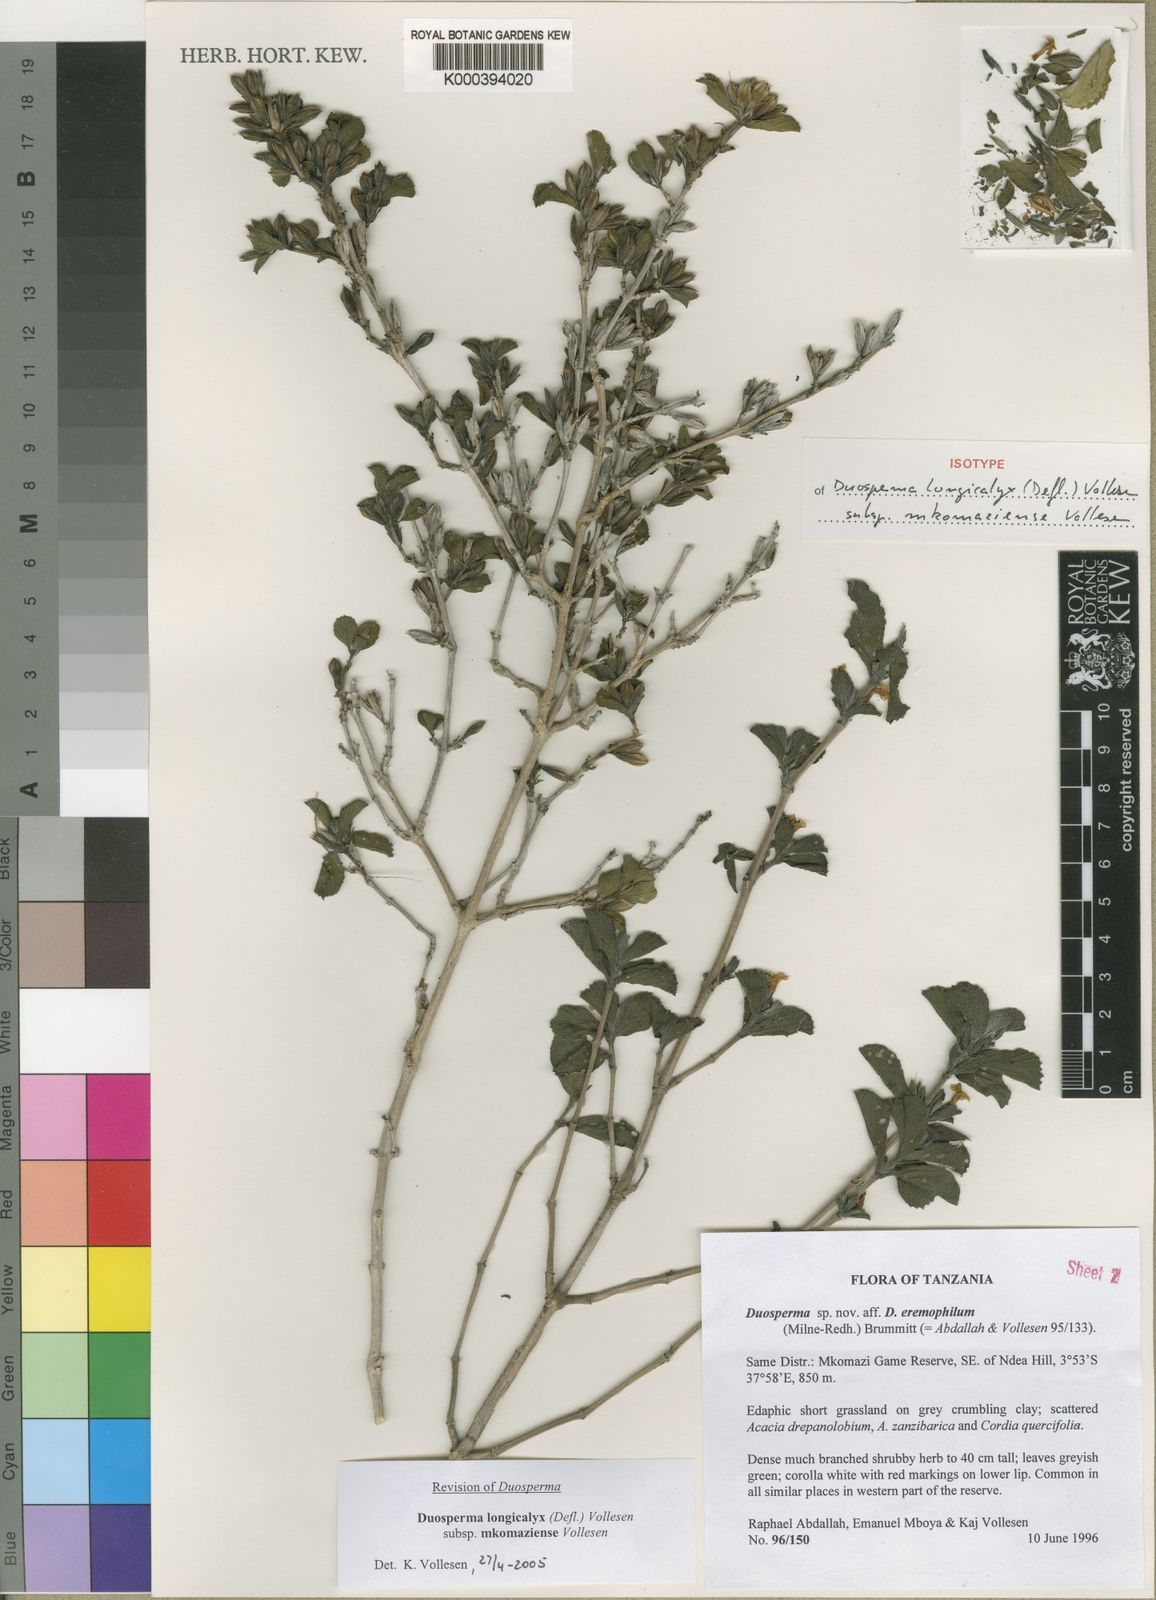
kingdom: Plantae
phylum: Tracheophyta
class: Magnoliopsida
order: Lamiales
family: Acanthaceae
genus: Duosperma
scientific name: Duosperma longicalyx
